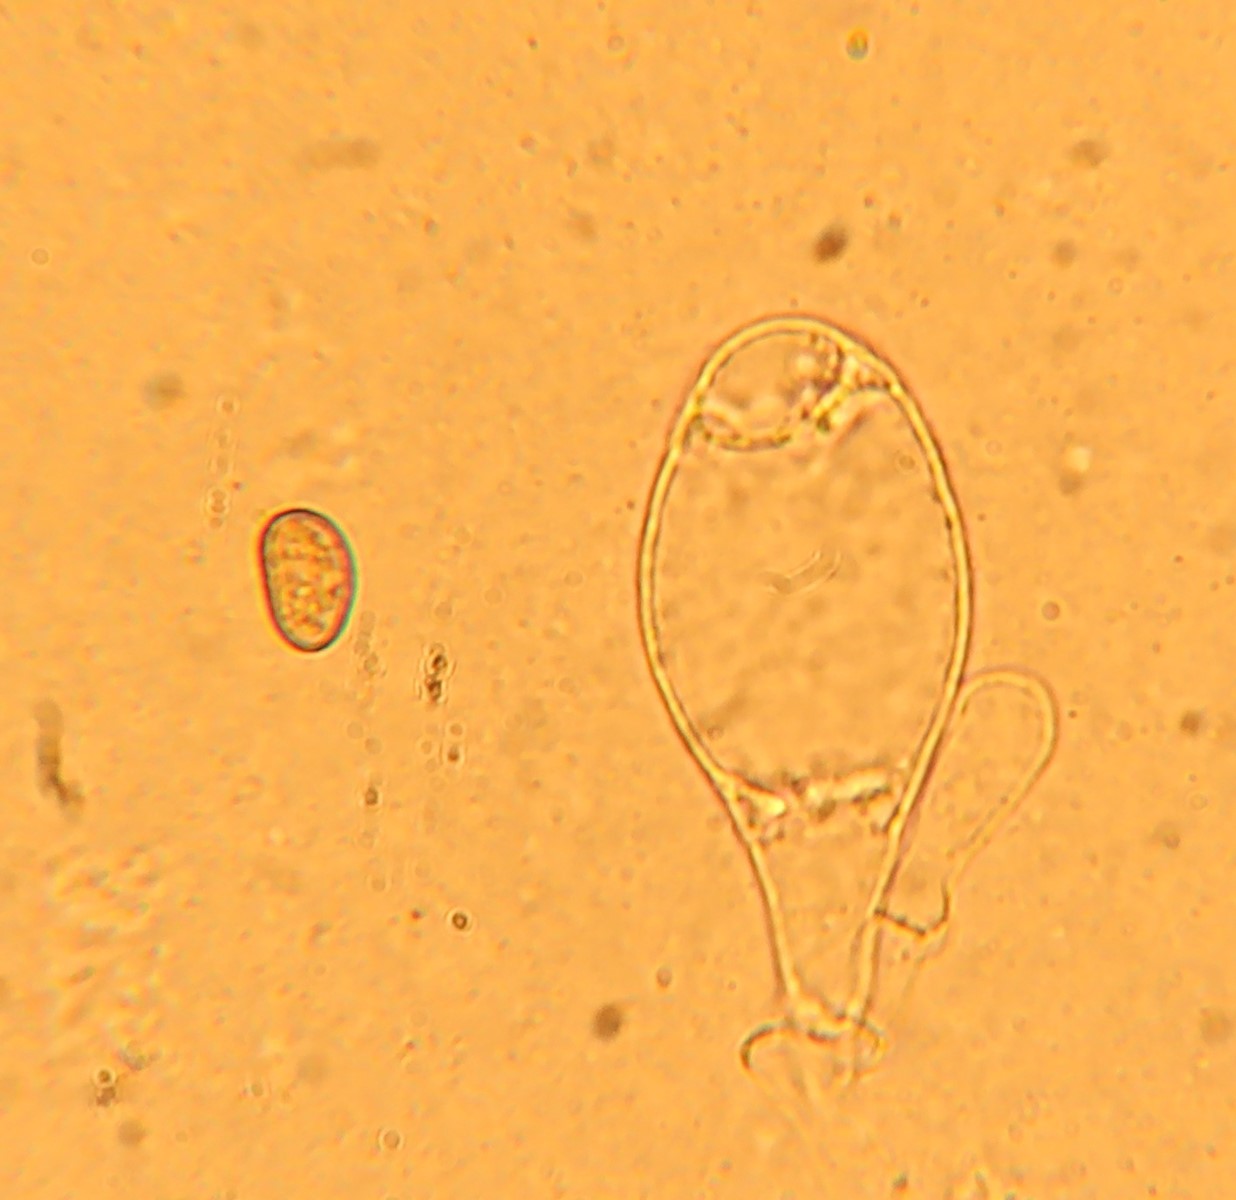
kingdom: Fungi
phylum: Basidiomycota
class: Agaricomycetes
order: Agaricales
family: Inocybaceae
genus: Pseudosperma
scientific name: Pseudosperma rimosum
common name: gulbladet trævlhat
